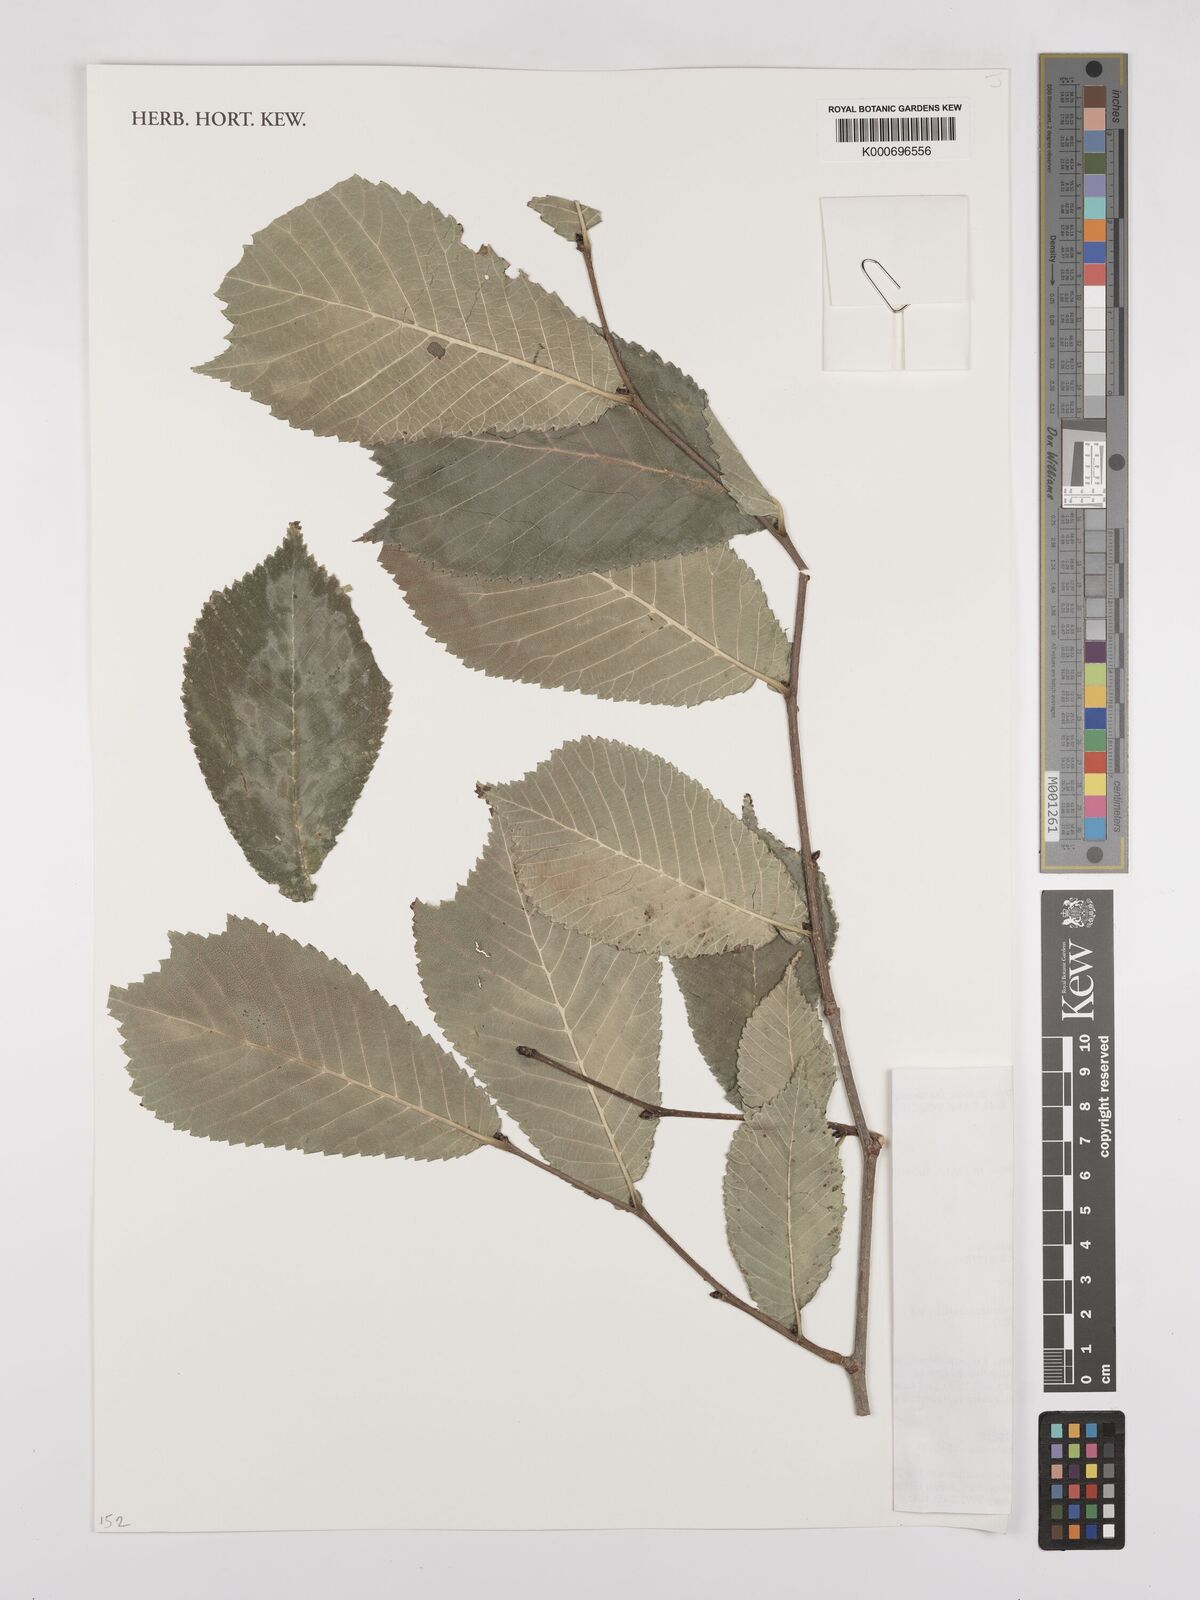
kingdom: Plantae
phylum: Tracheophyta
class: Magnoliopsida
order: Rosales
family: Ulmaceae
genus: Ulmus
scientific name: Ulmus laciniata
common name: Japanese elm
